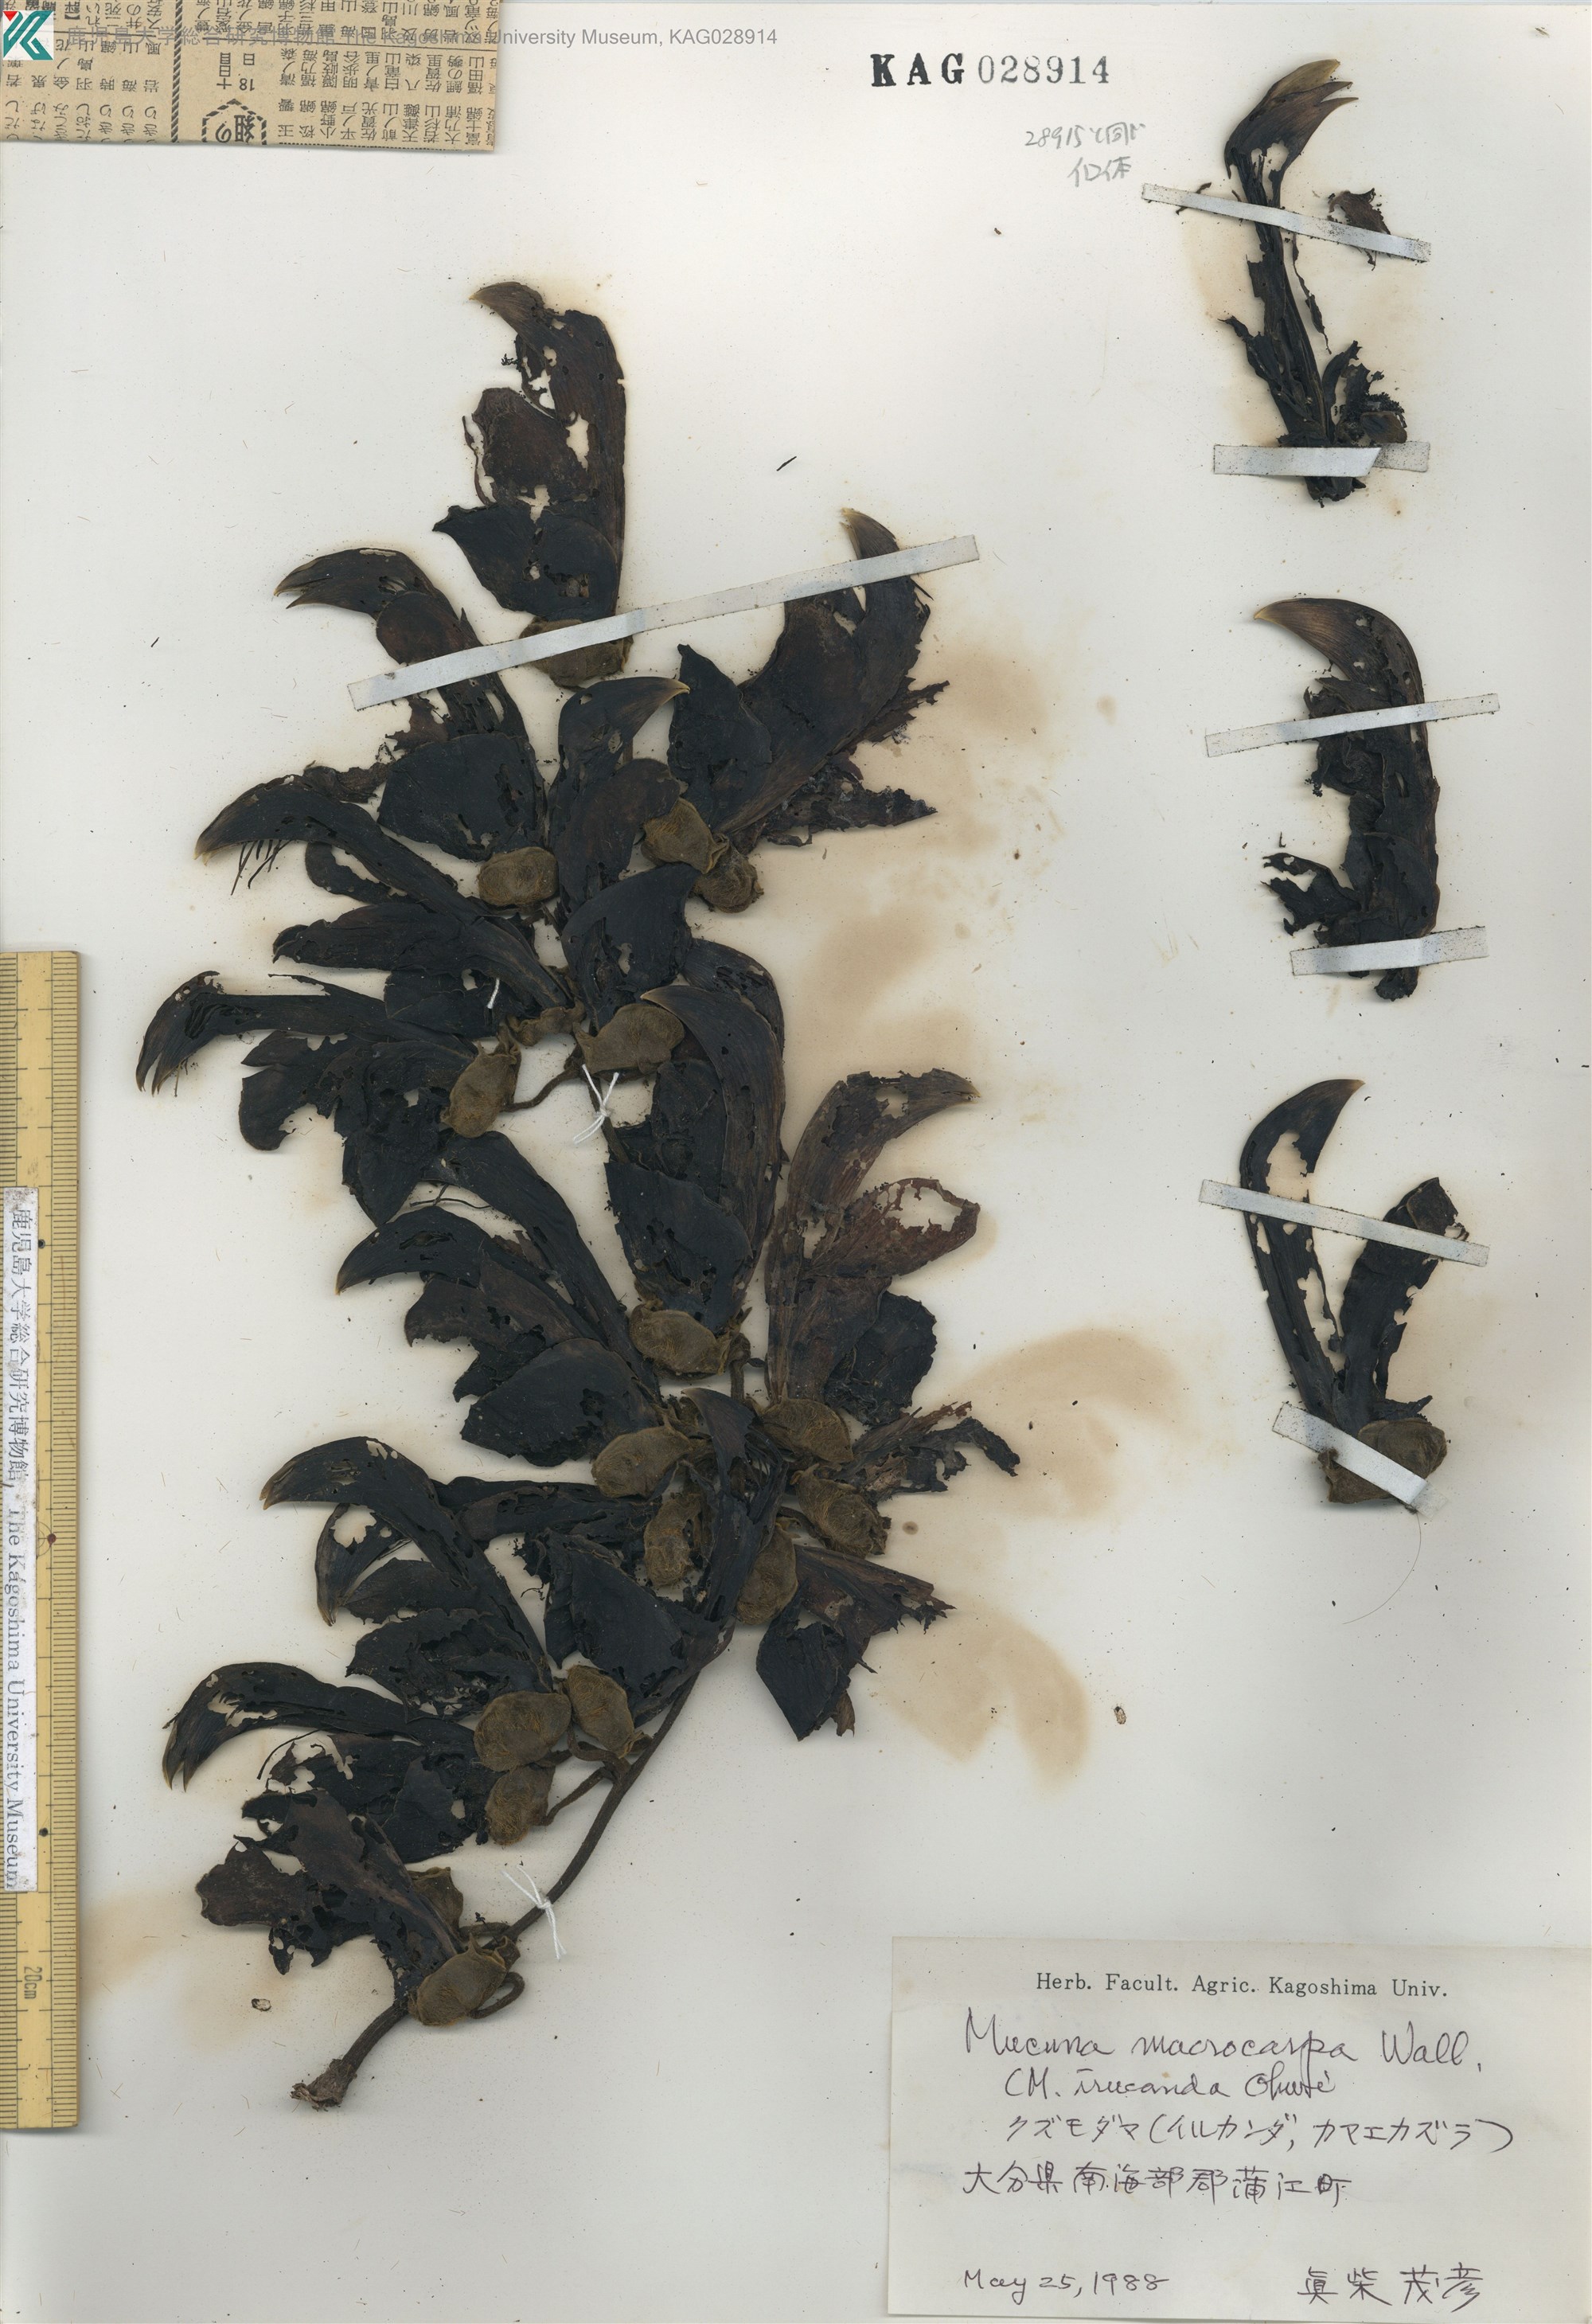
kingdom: Plantae
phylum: Tracheophyta
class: Magnoliopsida
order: Fabales
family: Fabaceae
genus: Mucuna
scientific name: Mucuna sempervirens
